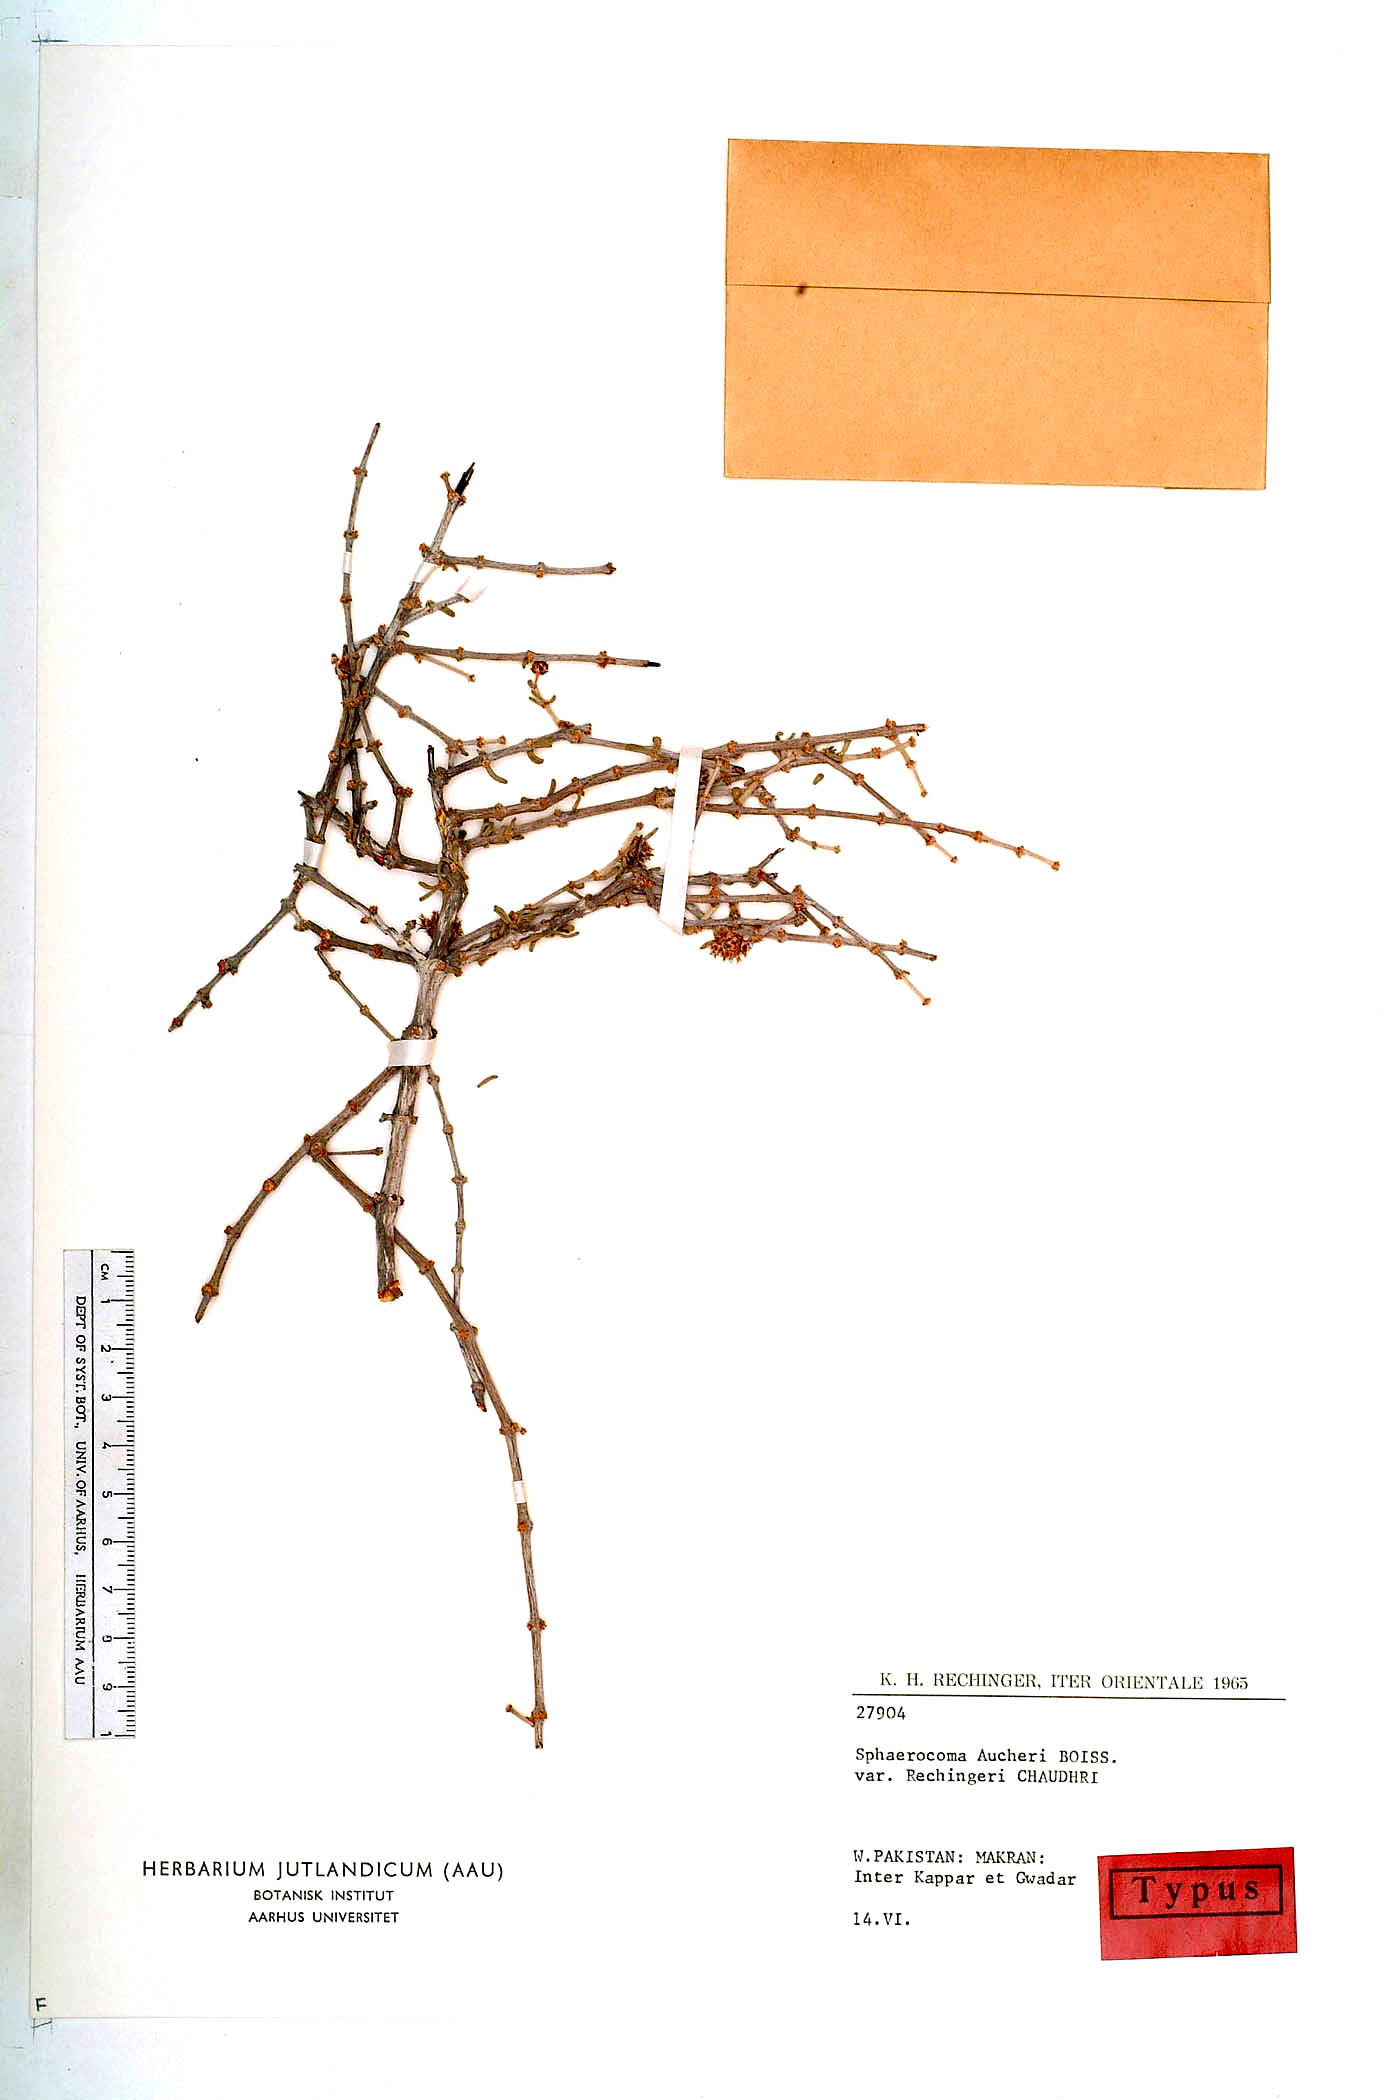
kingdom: Plantae
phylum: Tracheophyta
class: Magnoliopsida
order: Caryophyllales
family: Caryophyllaceae
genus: Sphaerocoma
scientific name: Sphaerocoma hookeri
